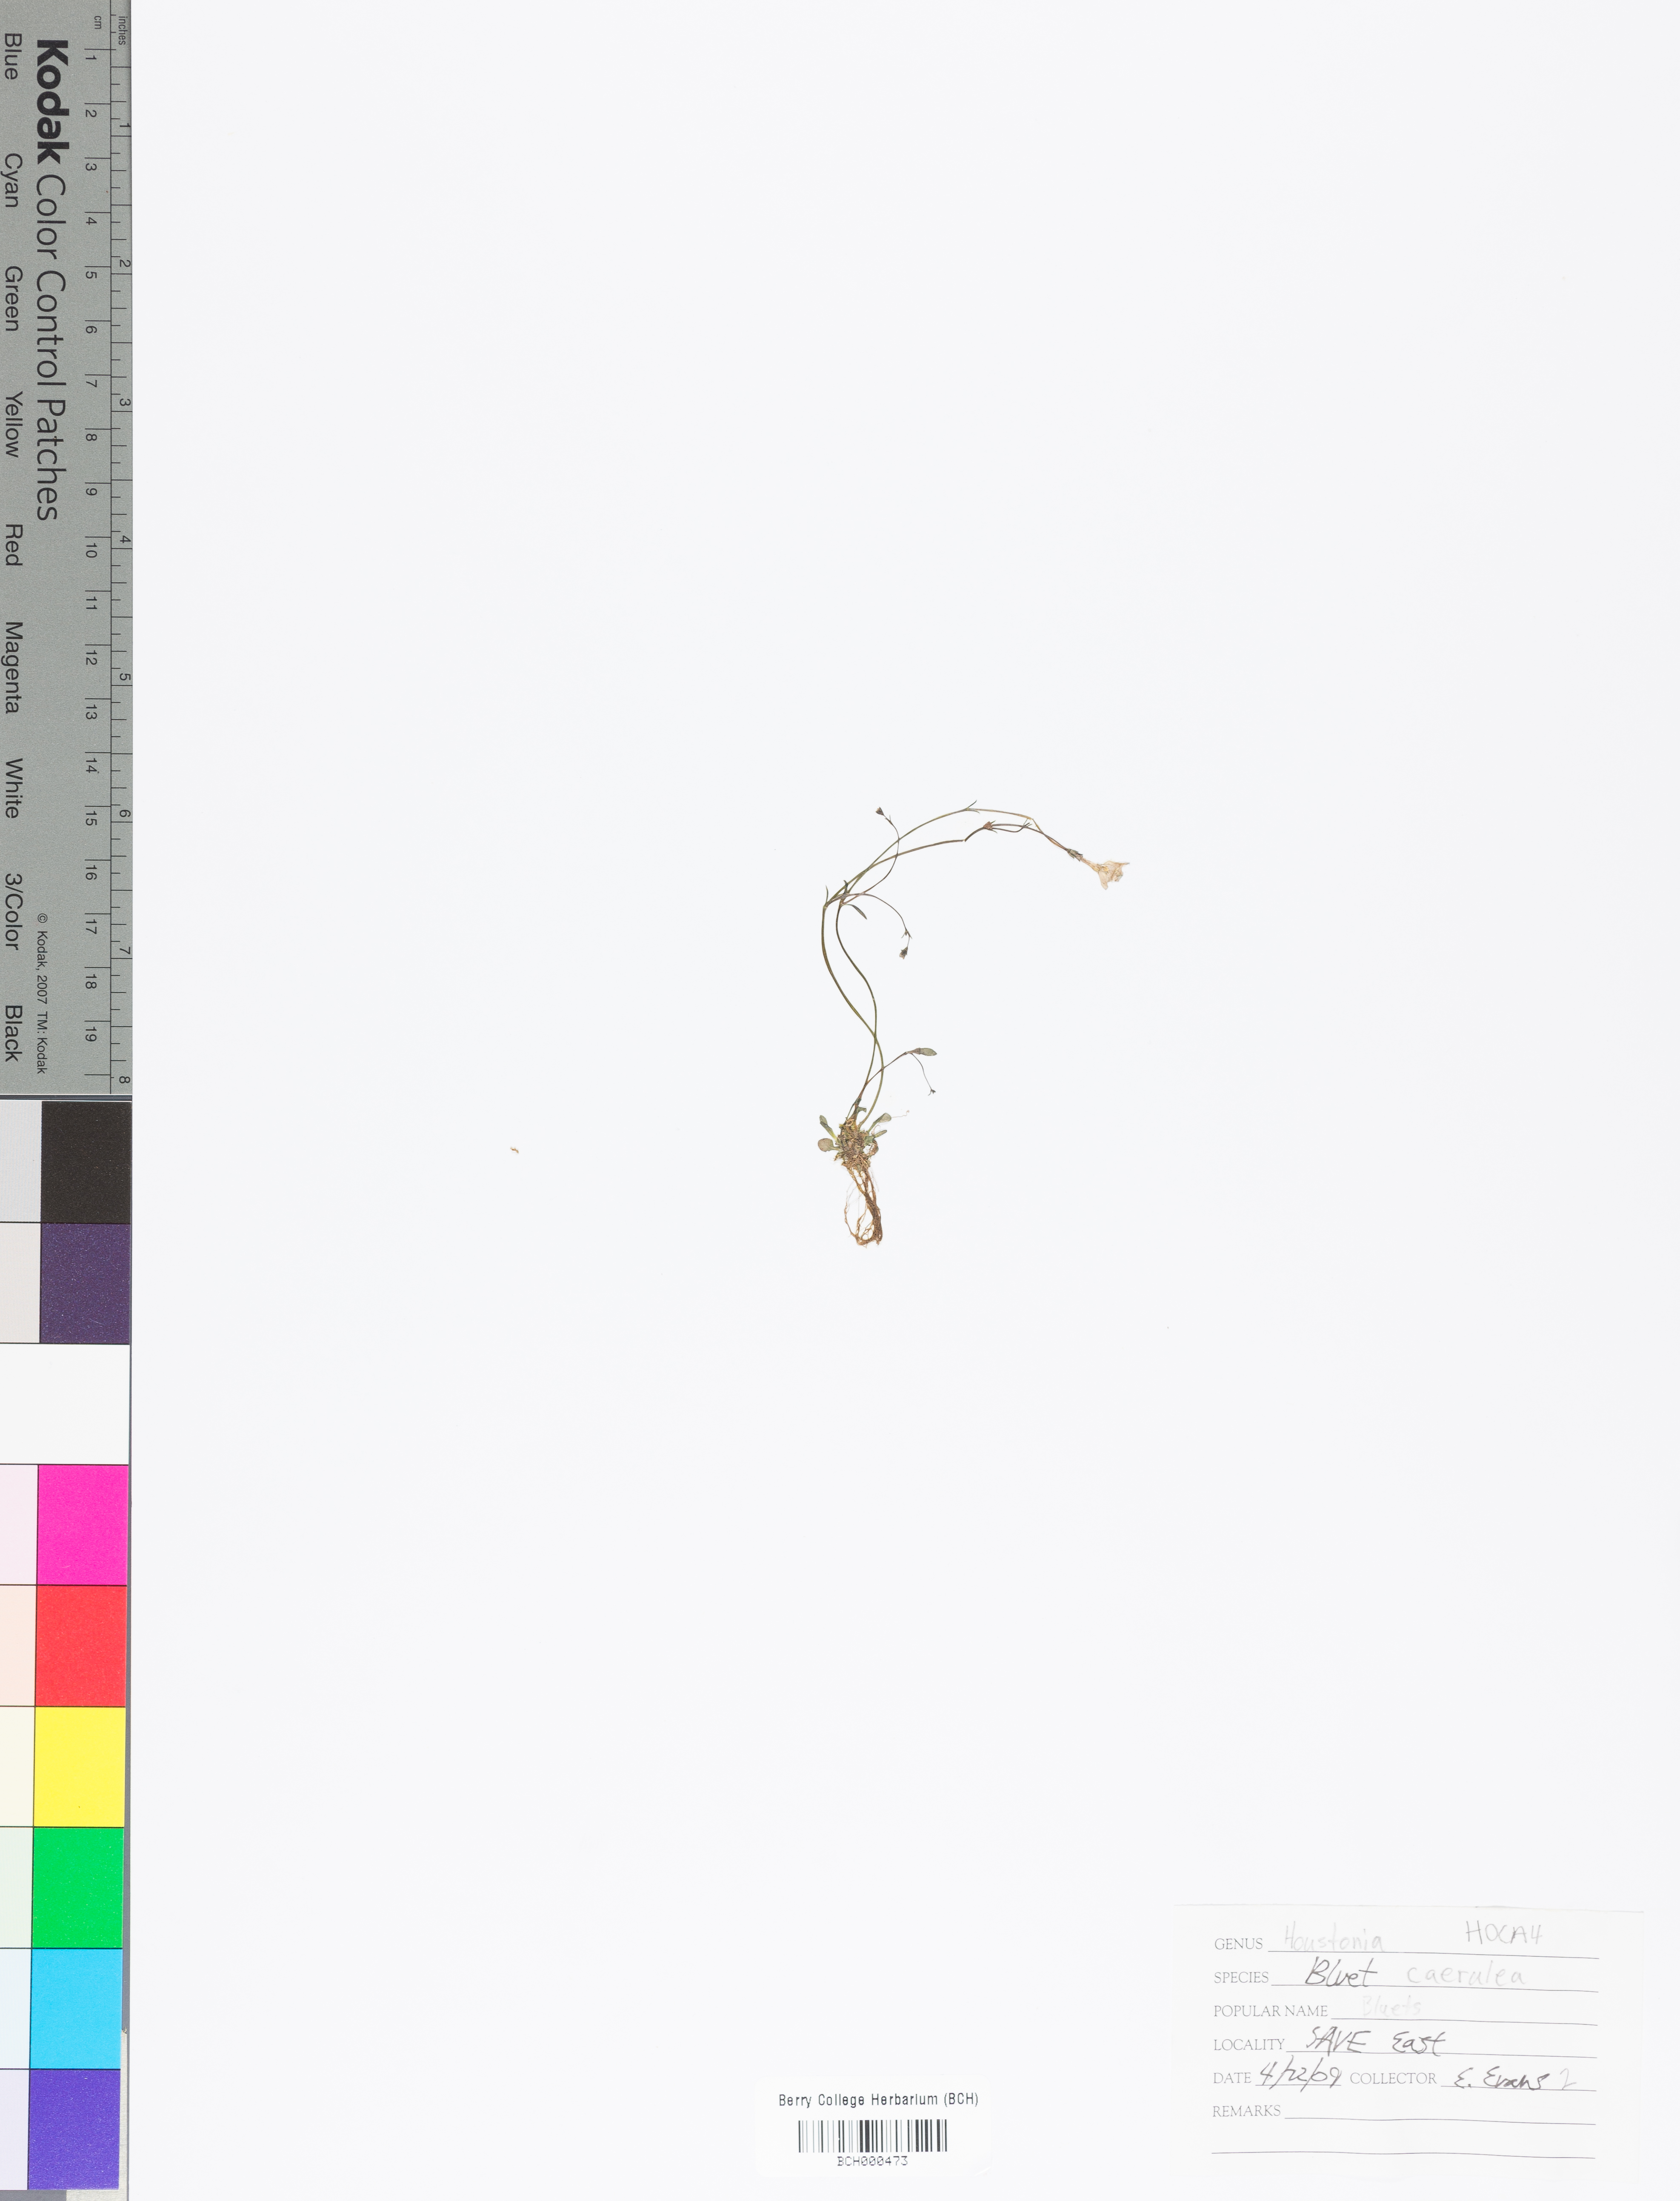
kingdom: Plantae
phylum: Tracheophyta
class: Magnoliopsida
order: Gentianales
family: Rubiaceae
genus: Houstonia
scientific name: Houstonia caerulea
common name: Bluets
